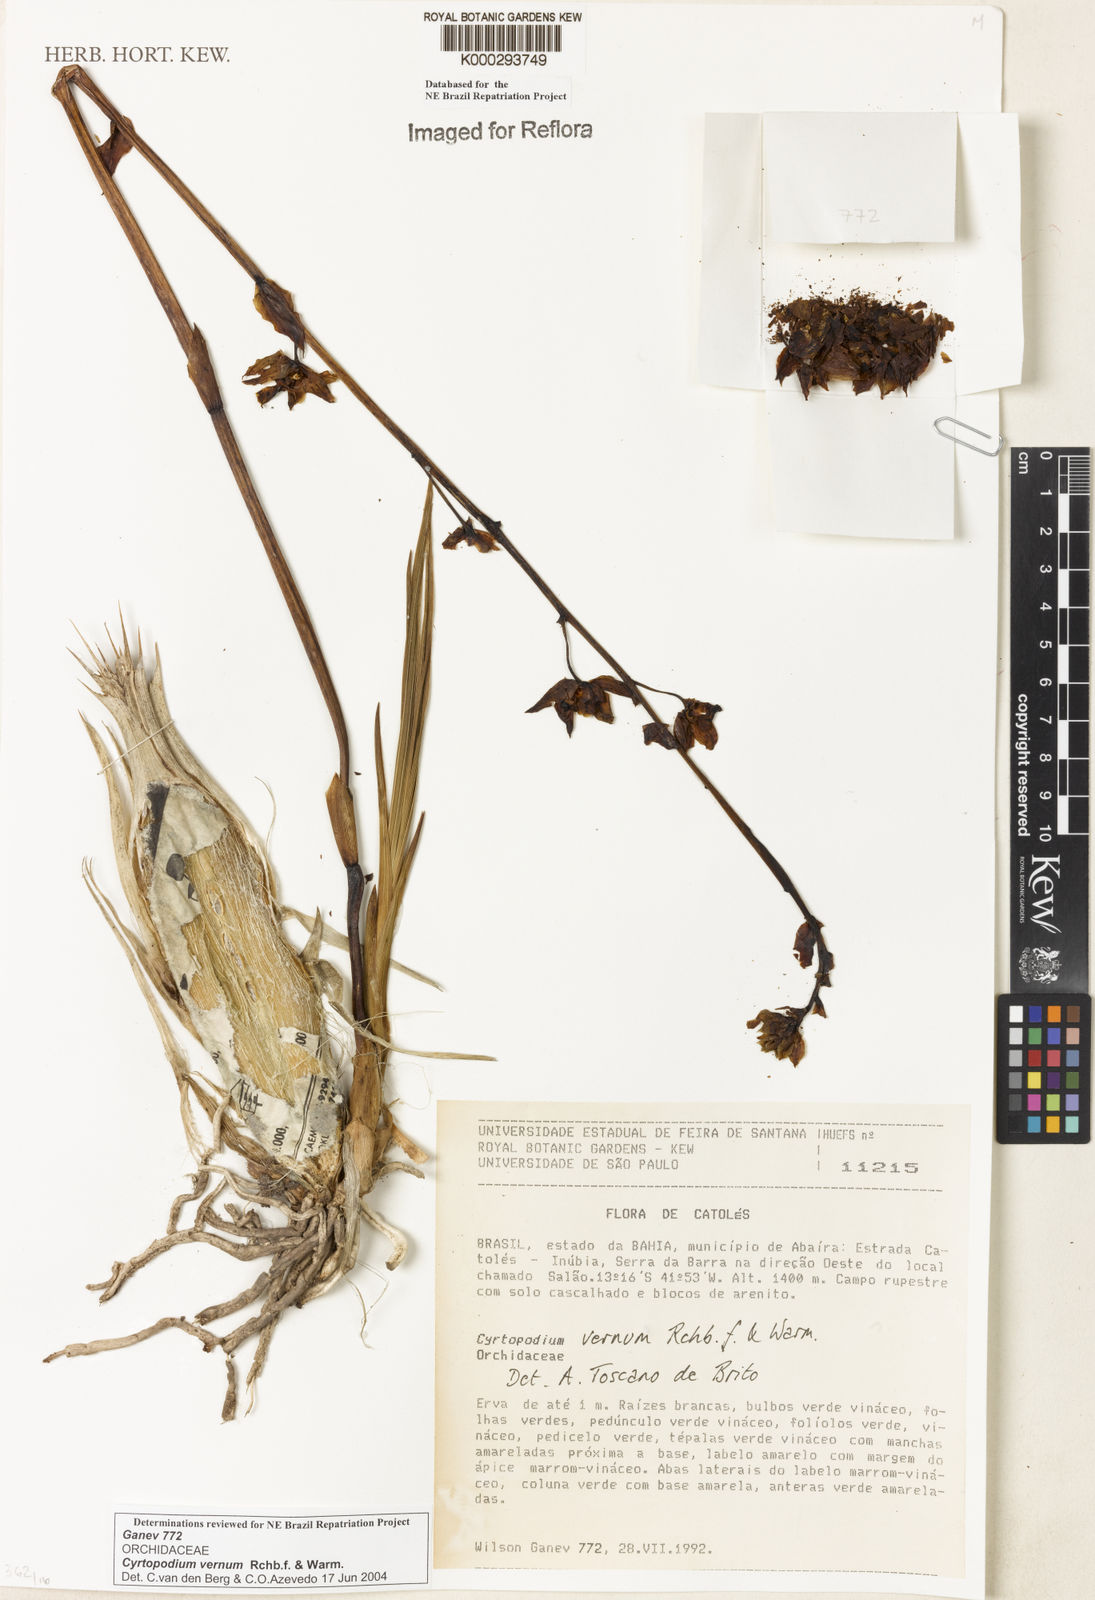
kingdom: Plantae
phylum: Tracheophyta
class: Liliopsida
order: Asparagales
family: Orchidaceae
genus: Cyrtopodium
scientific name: Cyrtopodium vernum
